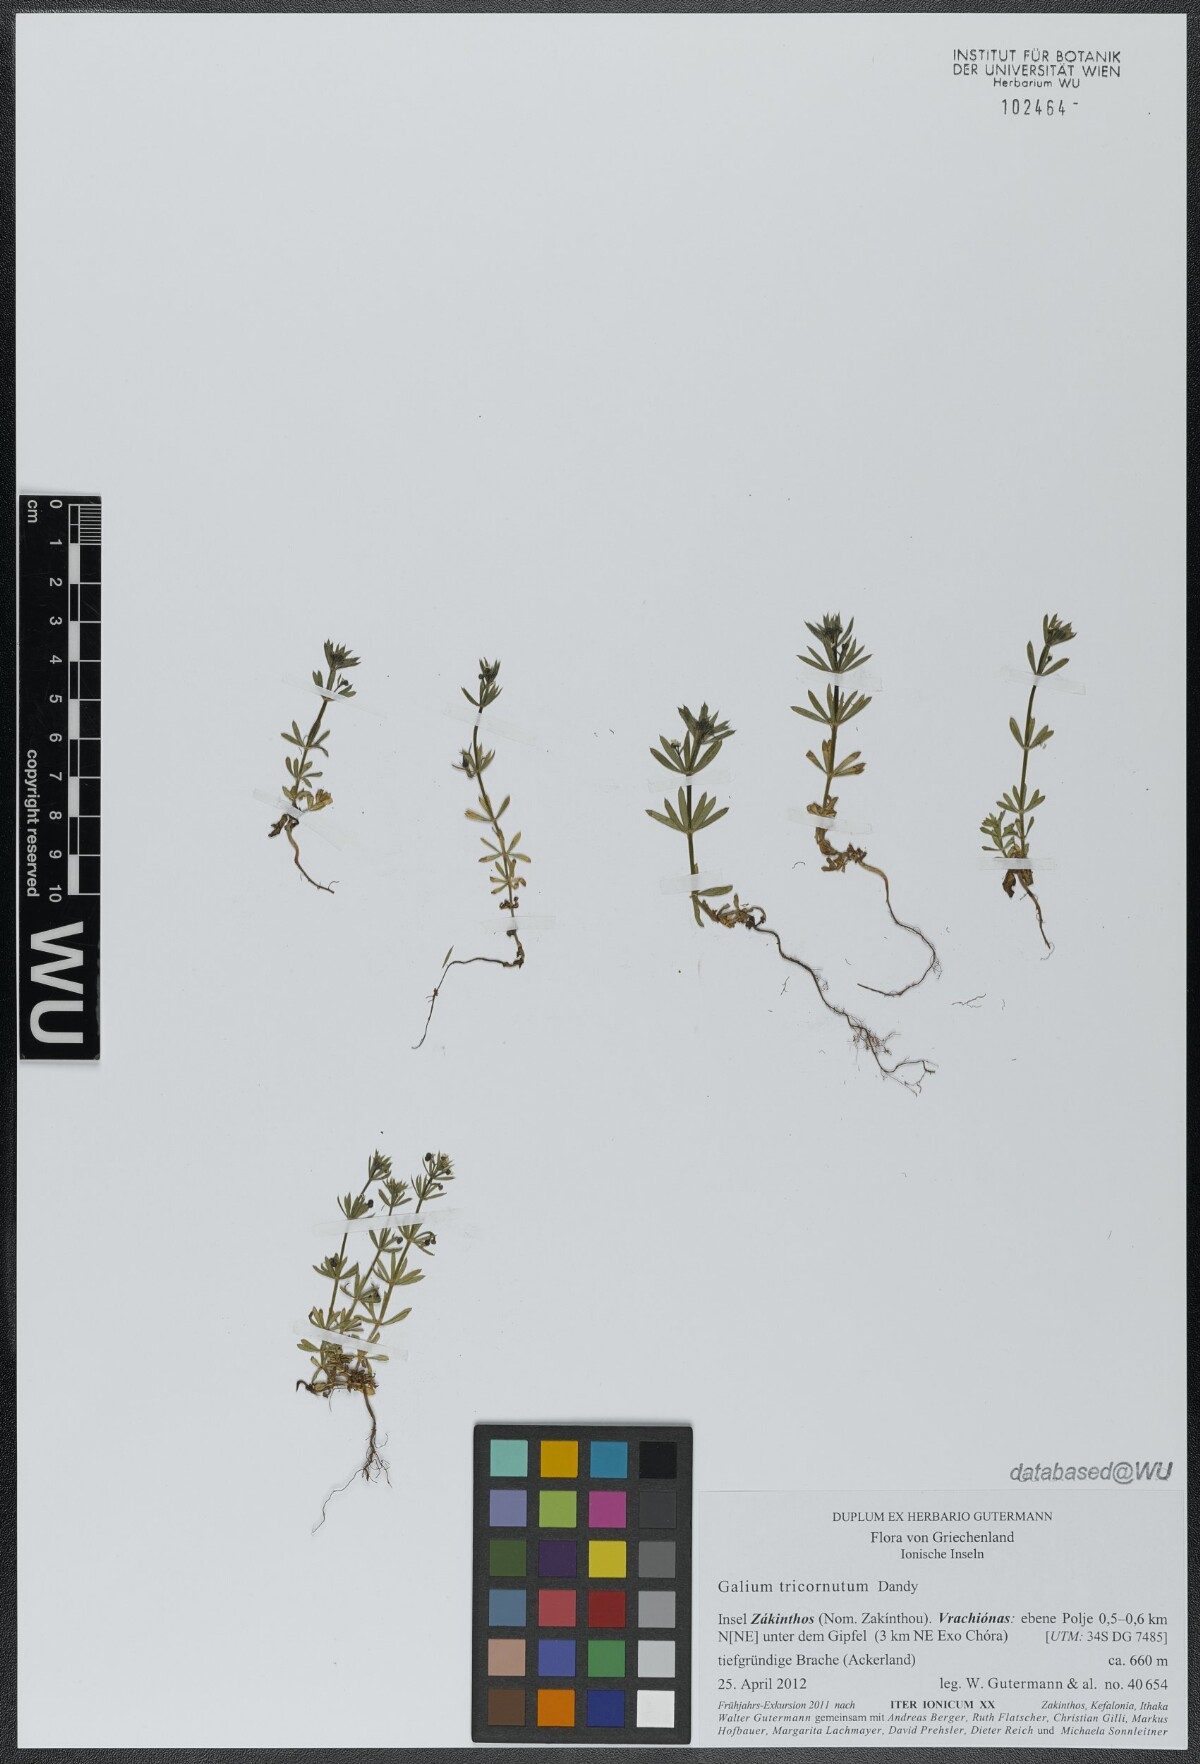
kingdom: Plantae
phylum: Tracheophyta
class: Magnoliopsida
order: Gentianales
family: Rubiaceae
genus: Galium
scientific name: Galium tricornutum
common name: Corn cleavers
